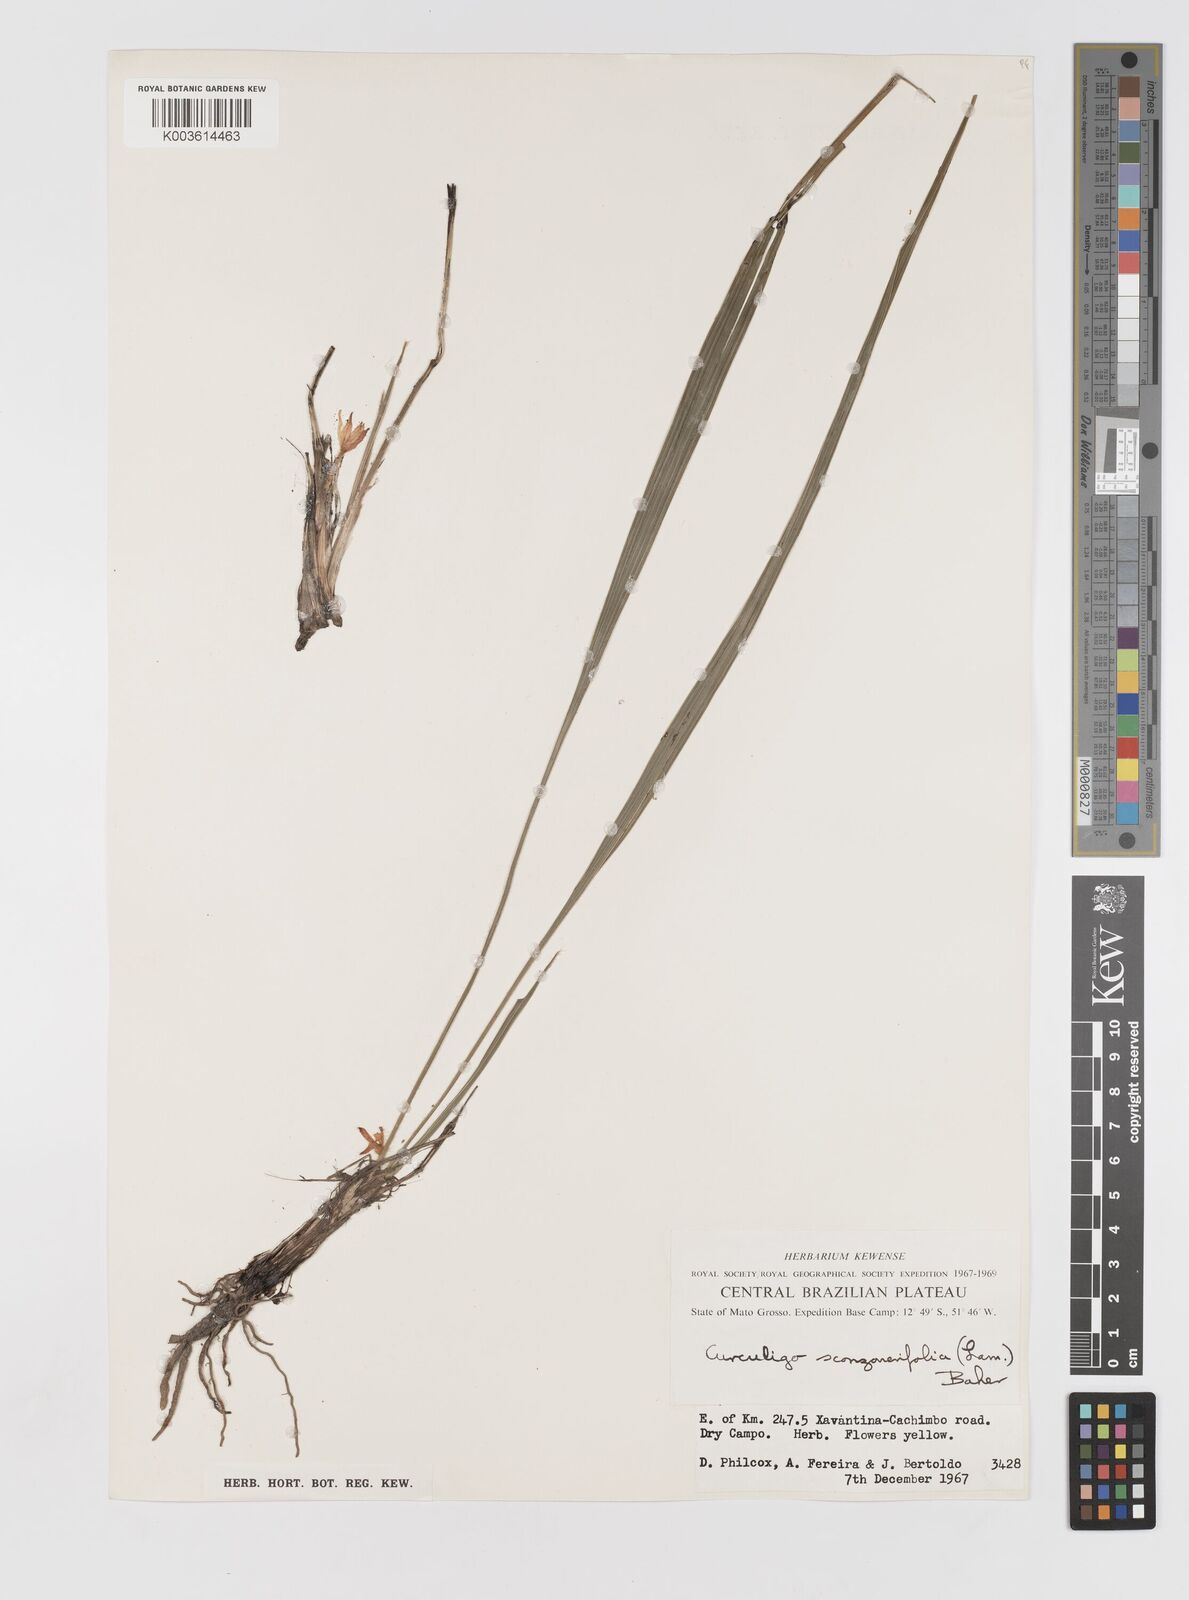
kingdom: Plantae
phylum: Tracheophyta
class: Liliopsida
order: Asparagales
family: Hypoxidaceae
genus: Curculigo
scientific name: Curculigo scorzonerifolia
